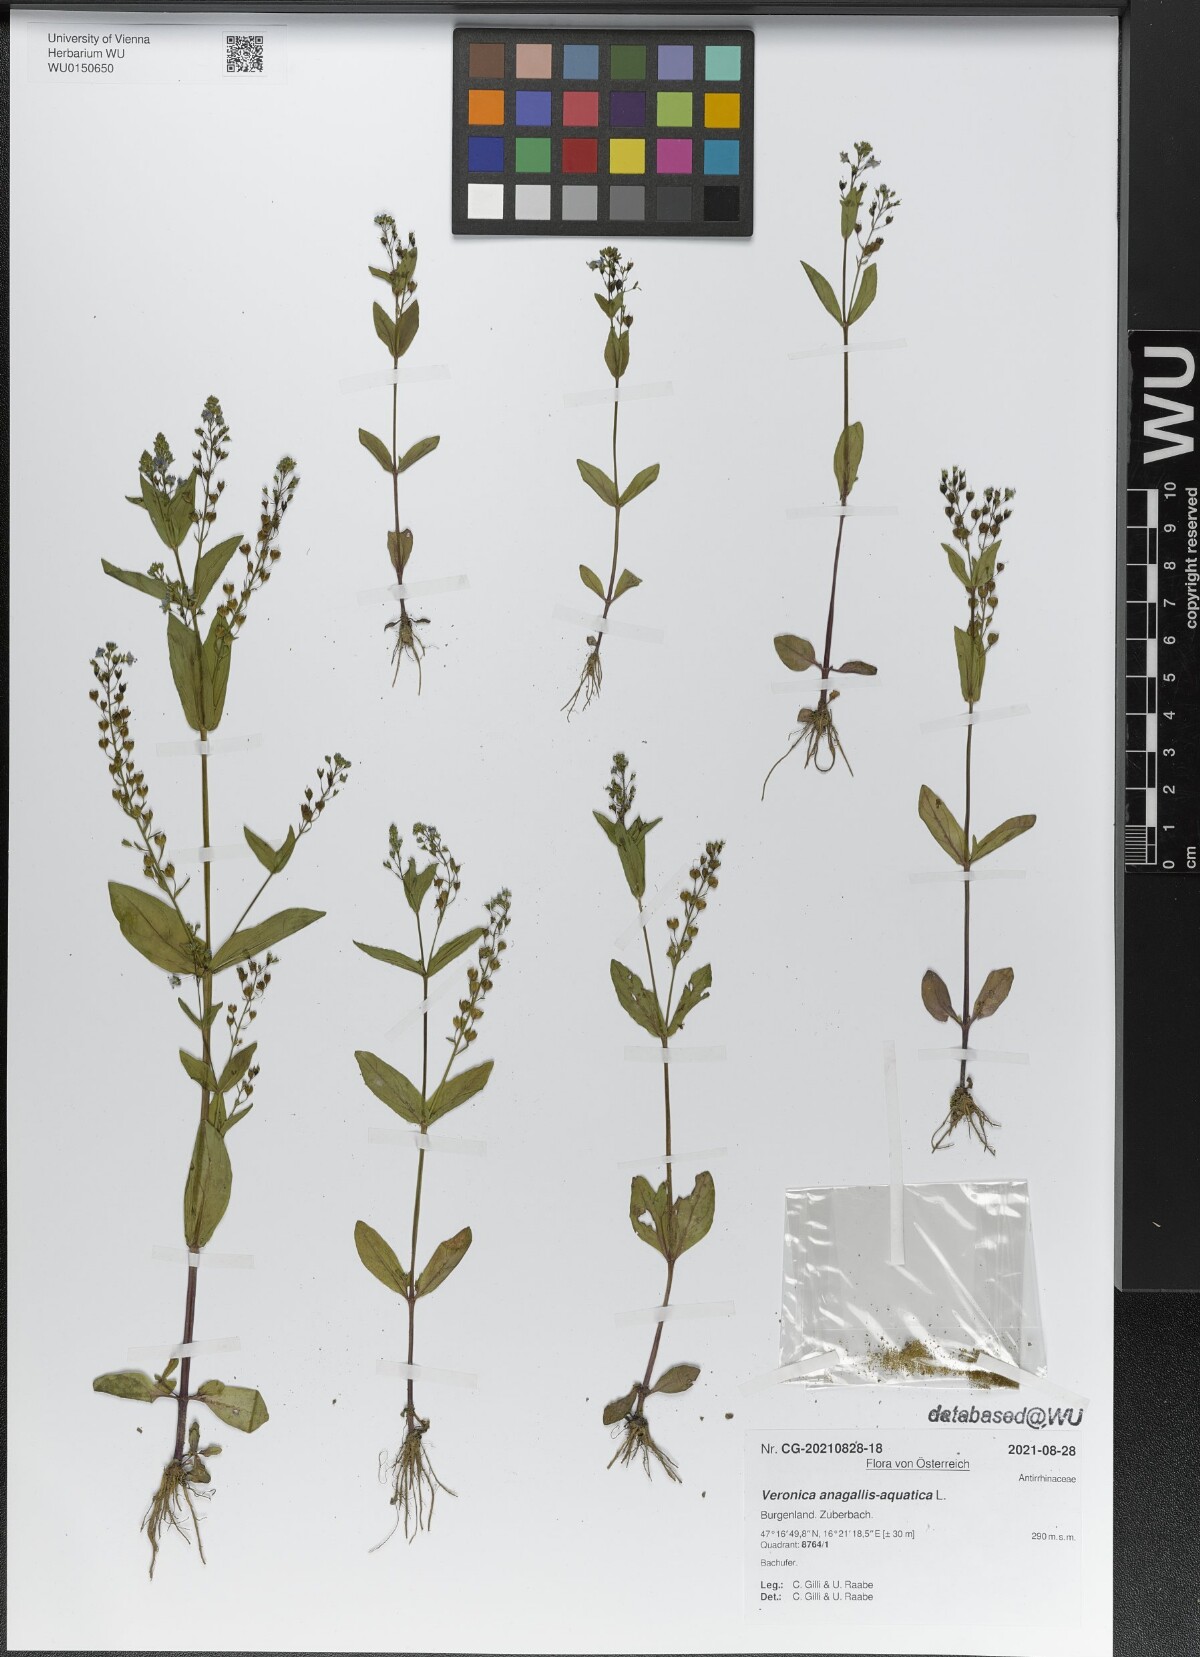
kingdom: Plantae
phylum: Tracheophyta
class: Magnoliopsida
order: Lamiales
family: Plantaginaceae
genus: Veronica
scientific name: Veronica anagallis-aquatica
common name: Water speedwell
